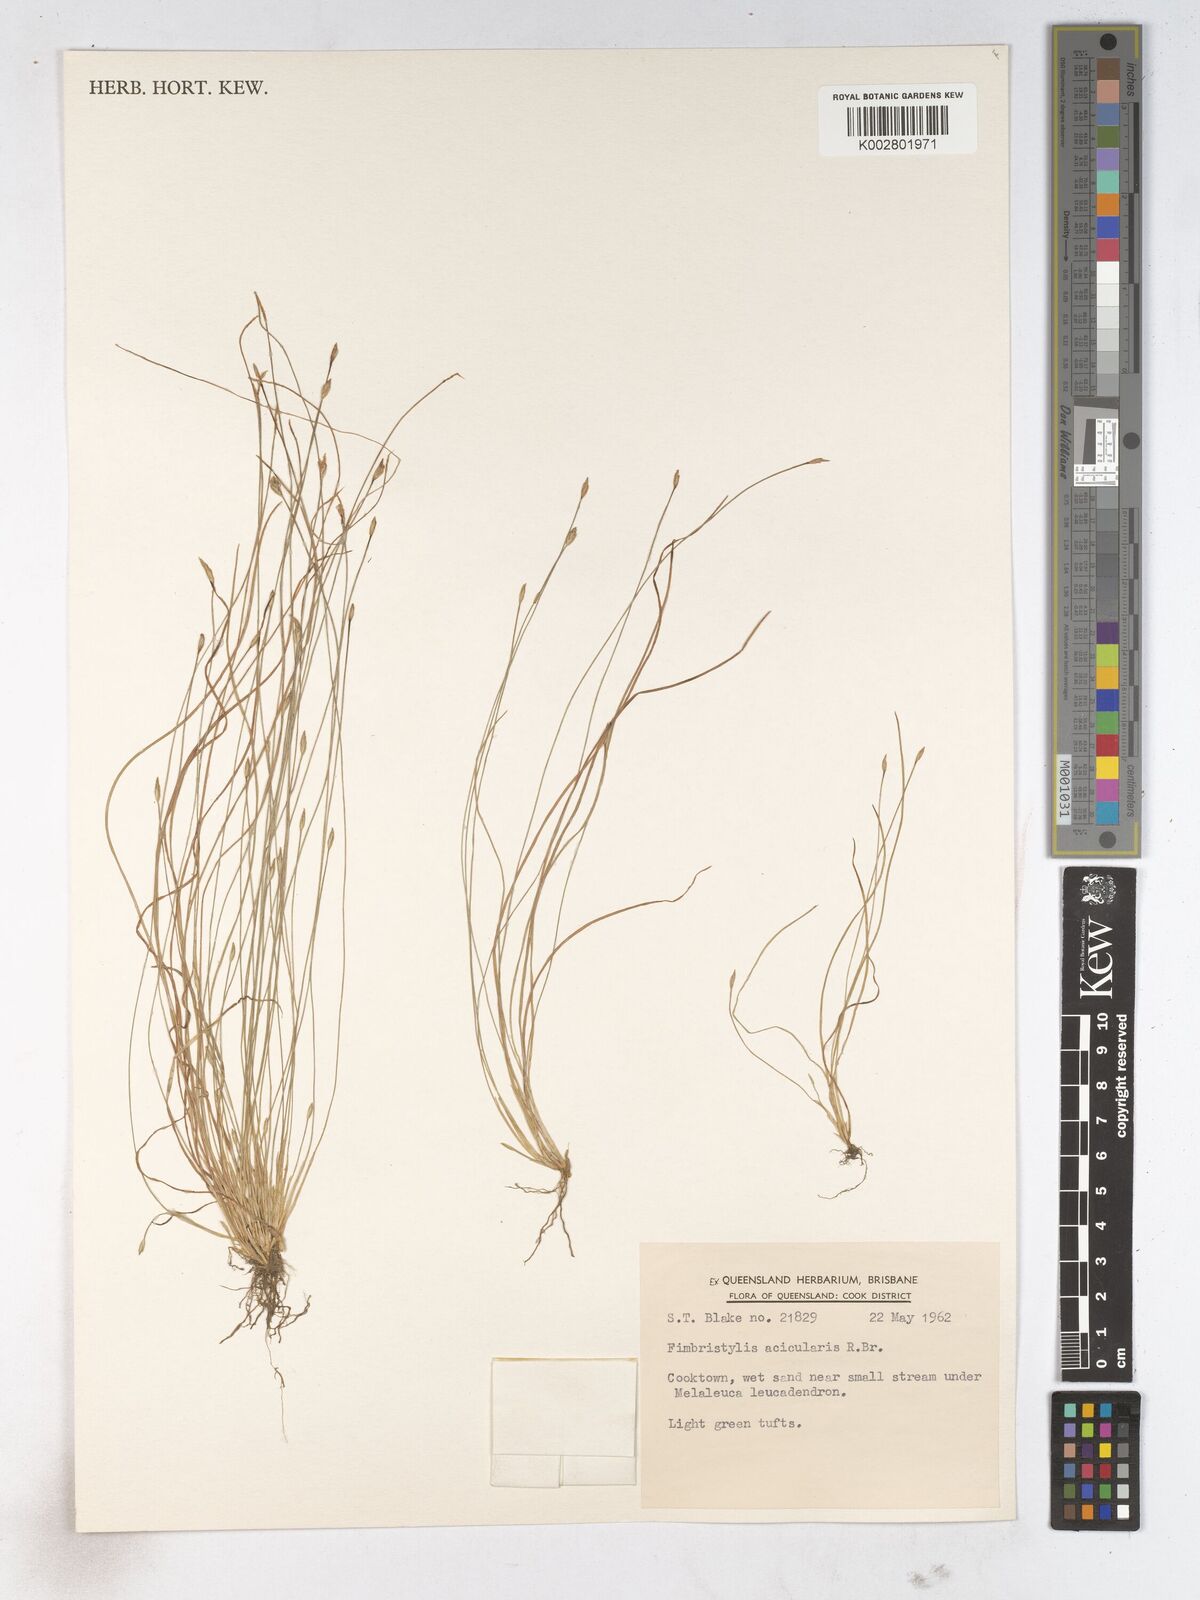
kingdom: Plantae
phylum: Tracheophyta
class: Liliopsida
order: Poales
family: Cyperaceae
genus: Fimbristylis
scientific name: Fimbristylis acicularis
